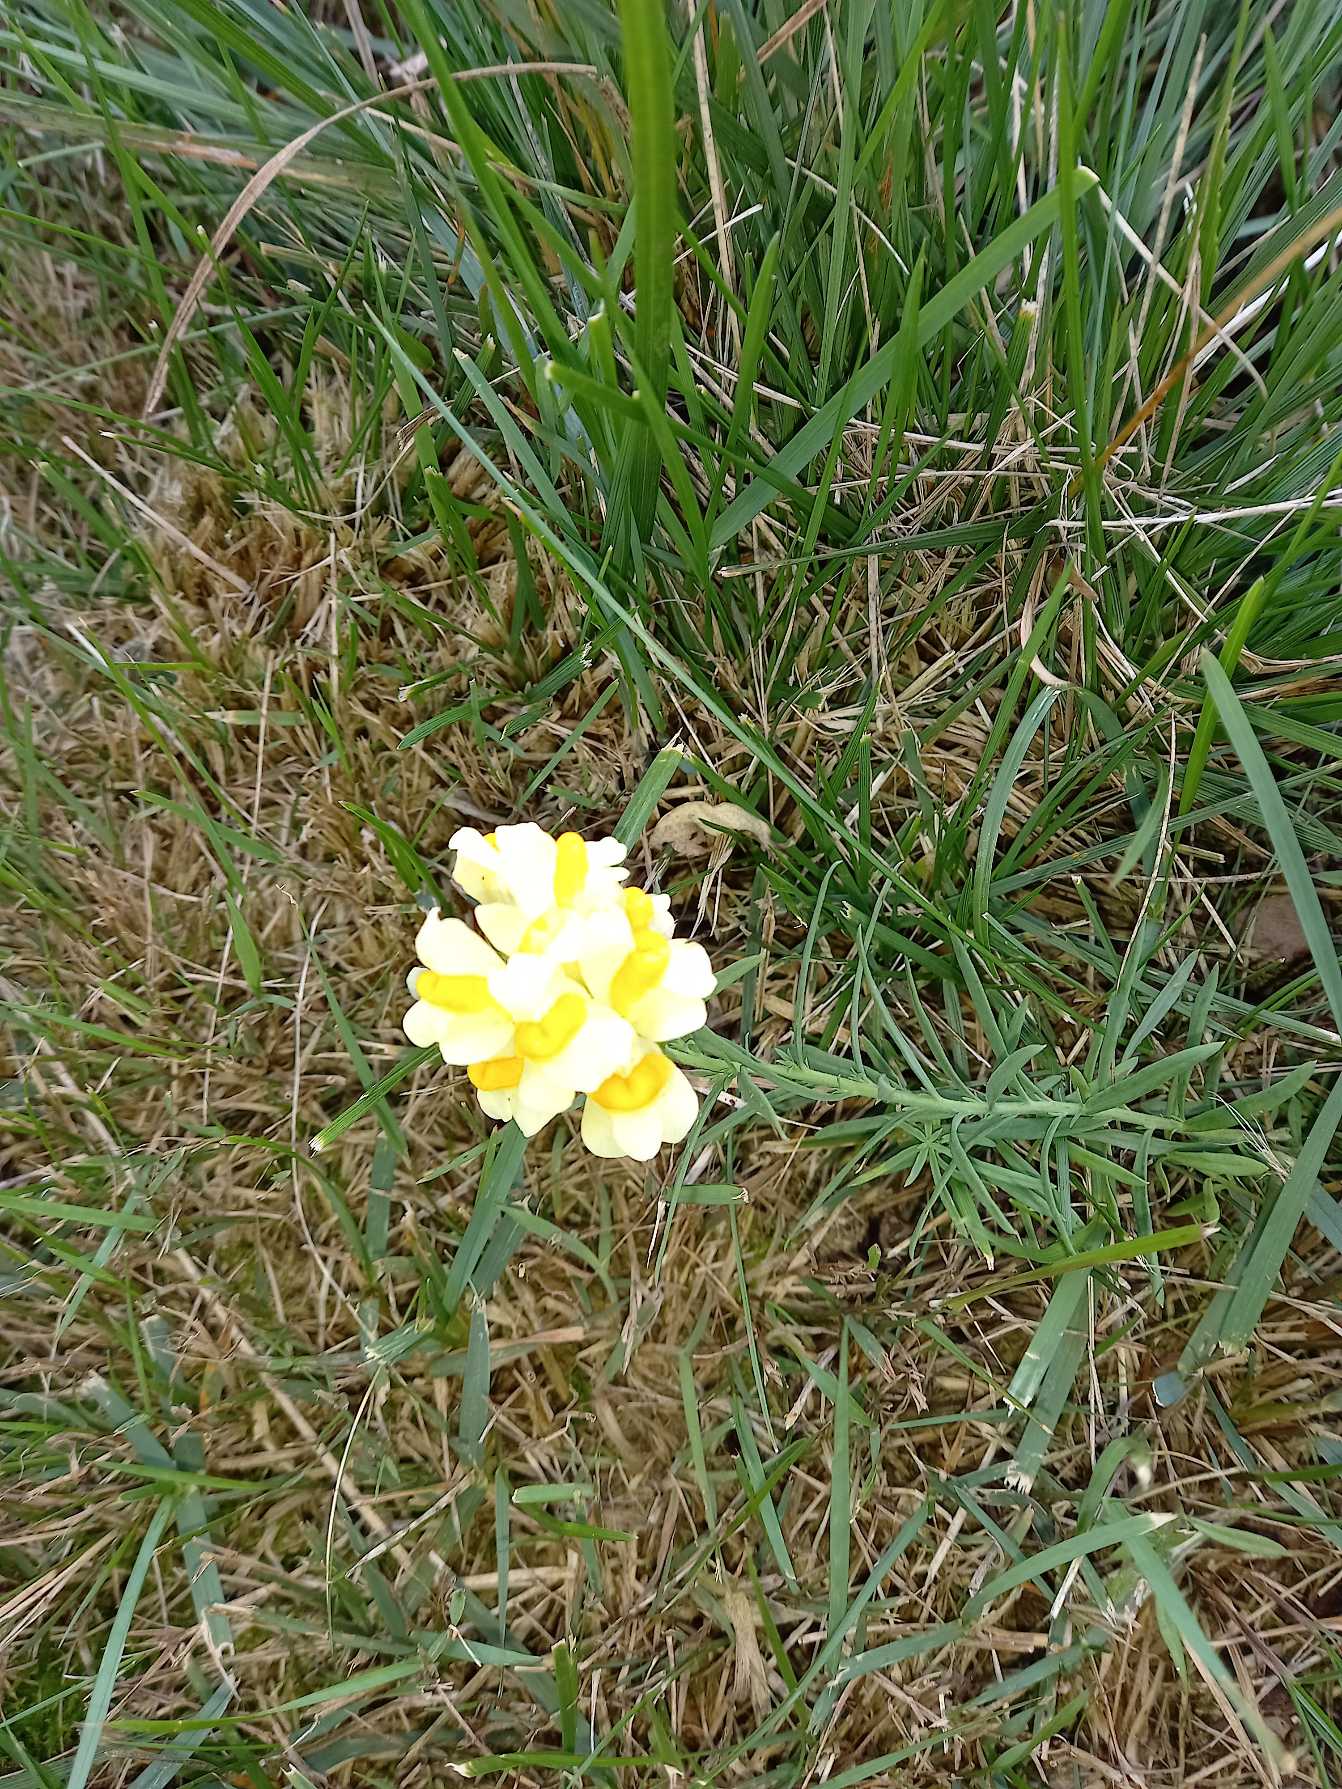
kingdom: Plantae
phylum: Tracheophyta
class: Magnoliopsida
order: Lamiales
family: Plantaginaceae
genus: Linaria
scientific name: Linaria vulgaris
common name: Almindelig torskemund
